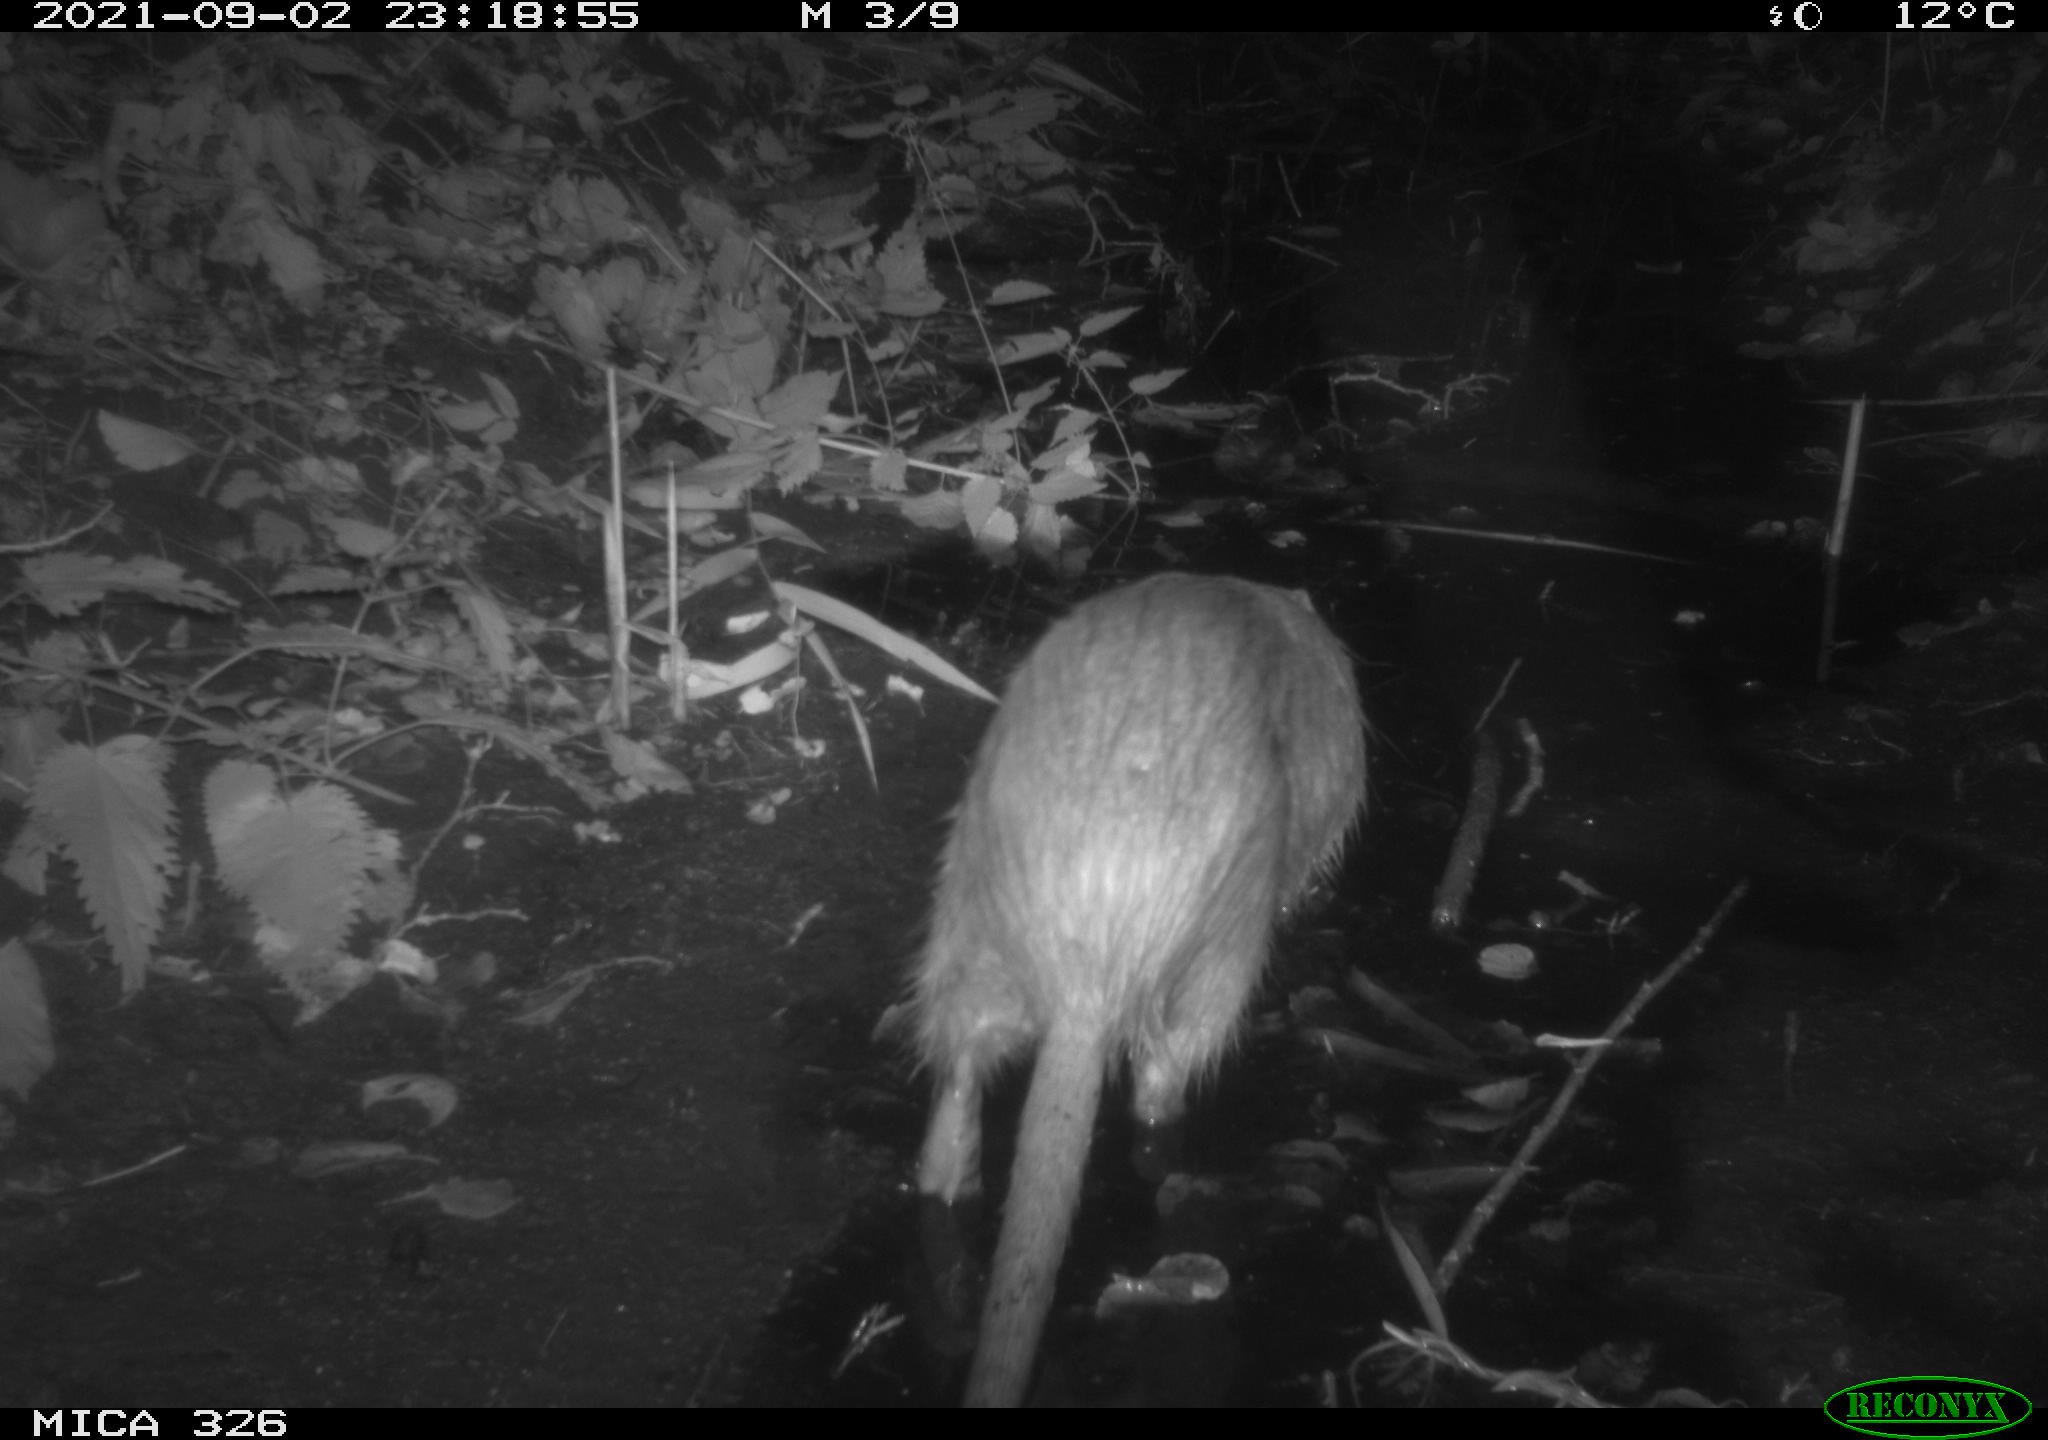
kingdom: Animalia
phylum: Chordata
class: Mammalia
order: Rodentia
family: Myocastoridae
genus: Myocastor
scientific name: Myocastor coypus
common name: Coypu
